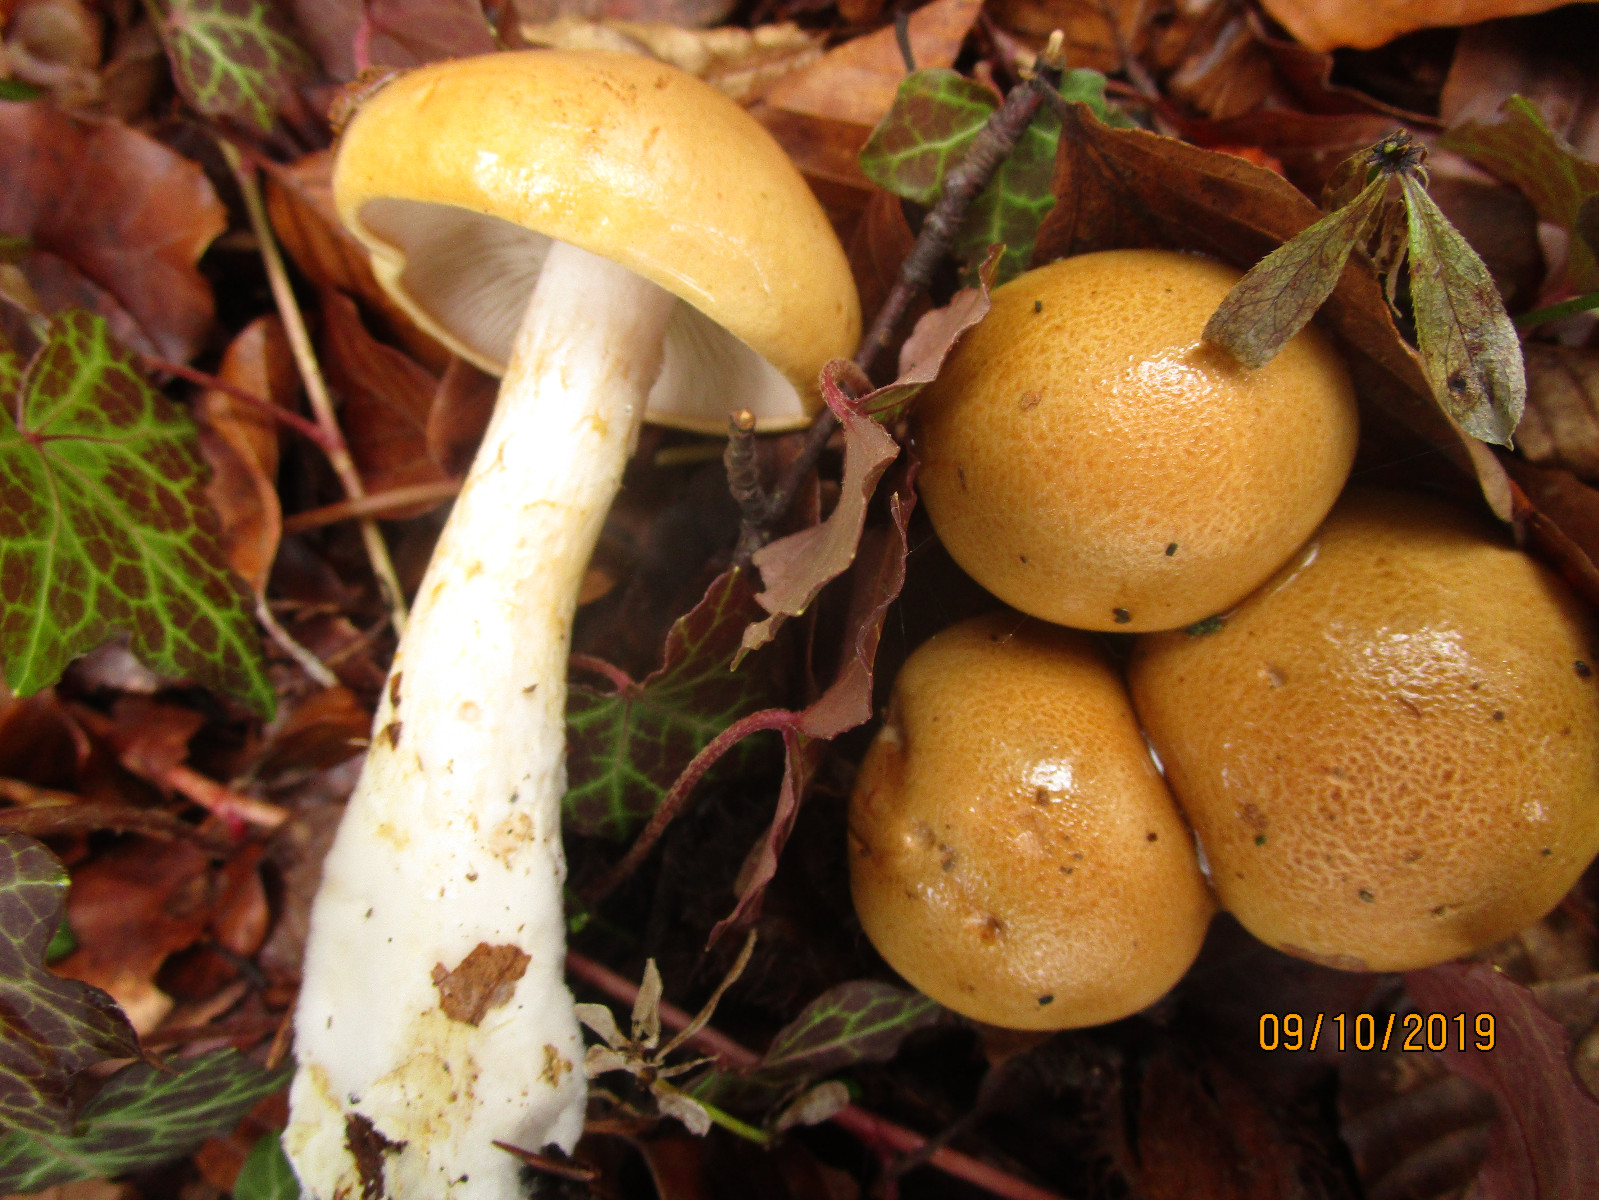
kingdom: Fungi
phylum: Basidiomycota
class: Agaricomycetes
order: Agaricales
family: Cortinariaceae
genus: Phlegmacium
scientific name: Phlegmacium cliduchus
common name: majs-slørhat
